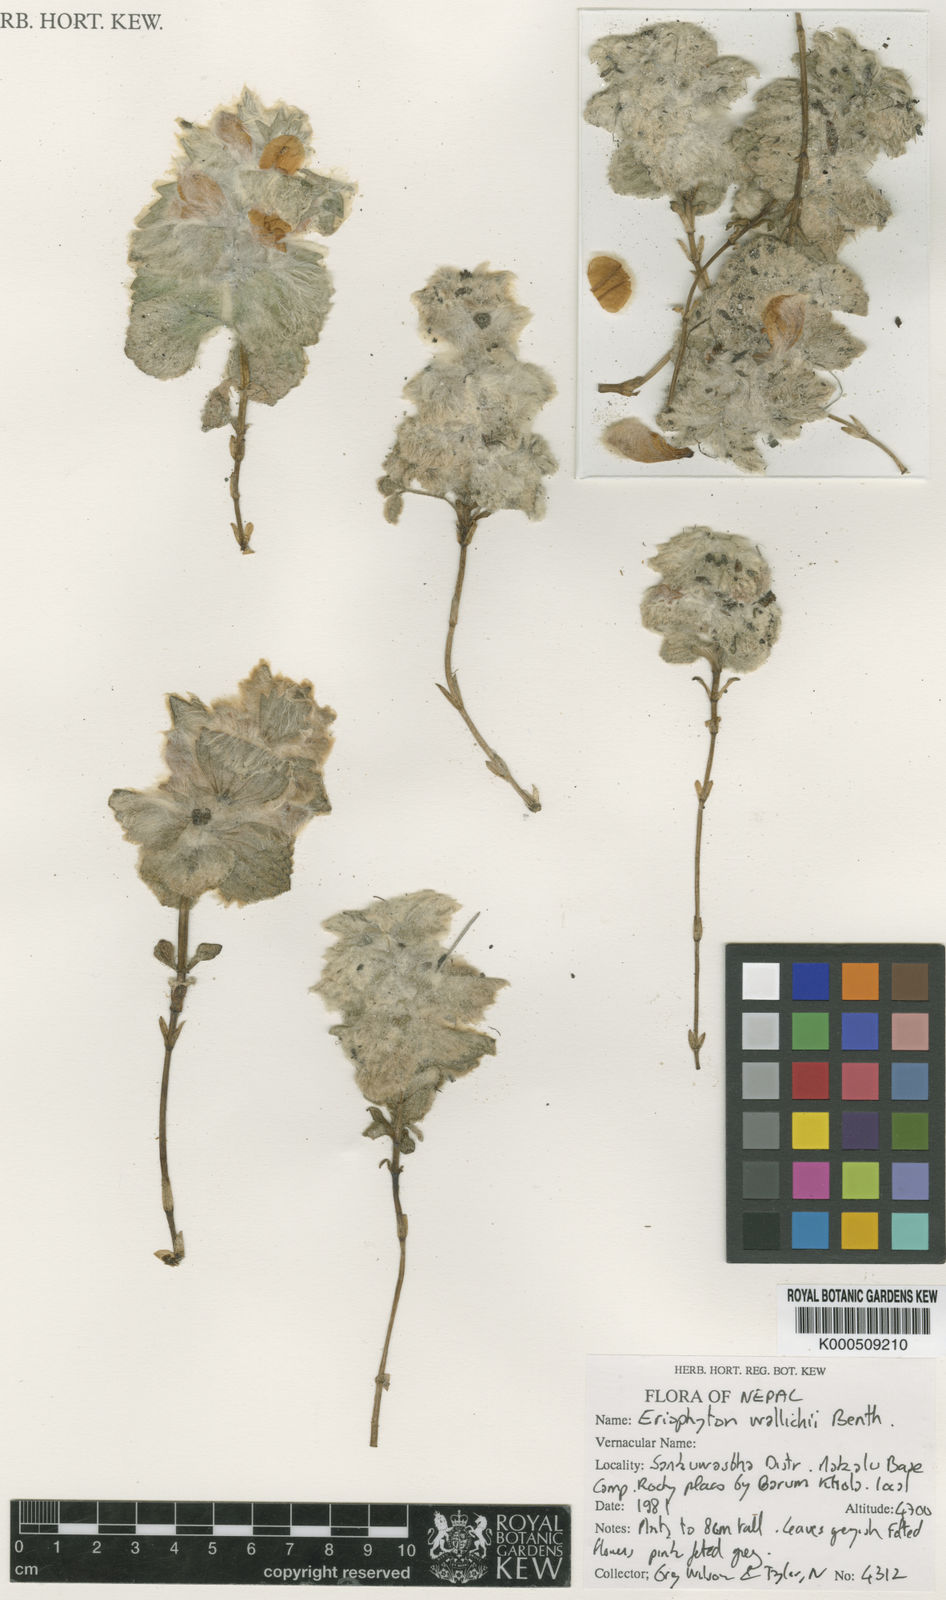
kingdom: Plantae
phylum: Tracheophyta
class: Magnoliopsida
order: Lamiales
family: Lamiaceae
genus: Eriophyton
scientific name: Eriophyton wallichii
